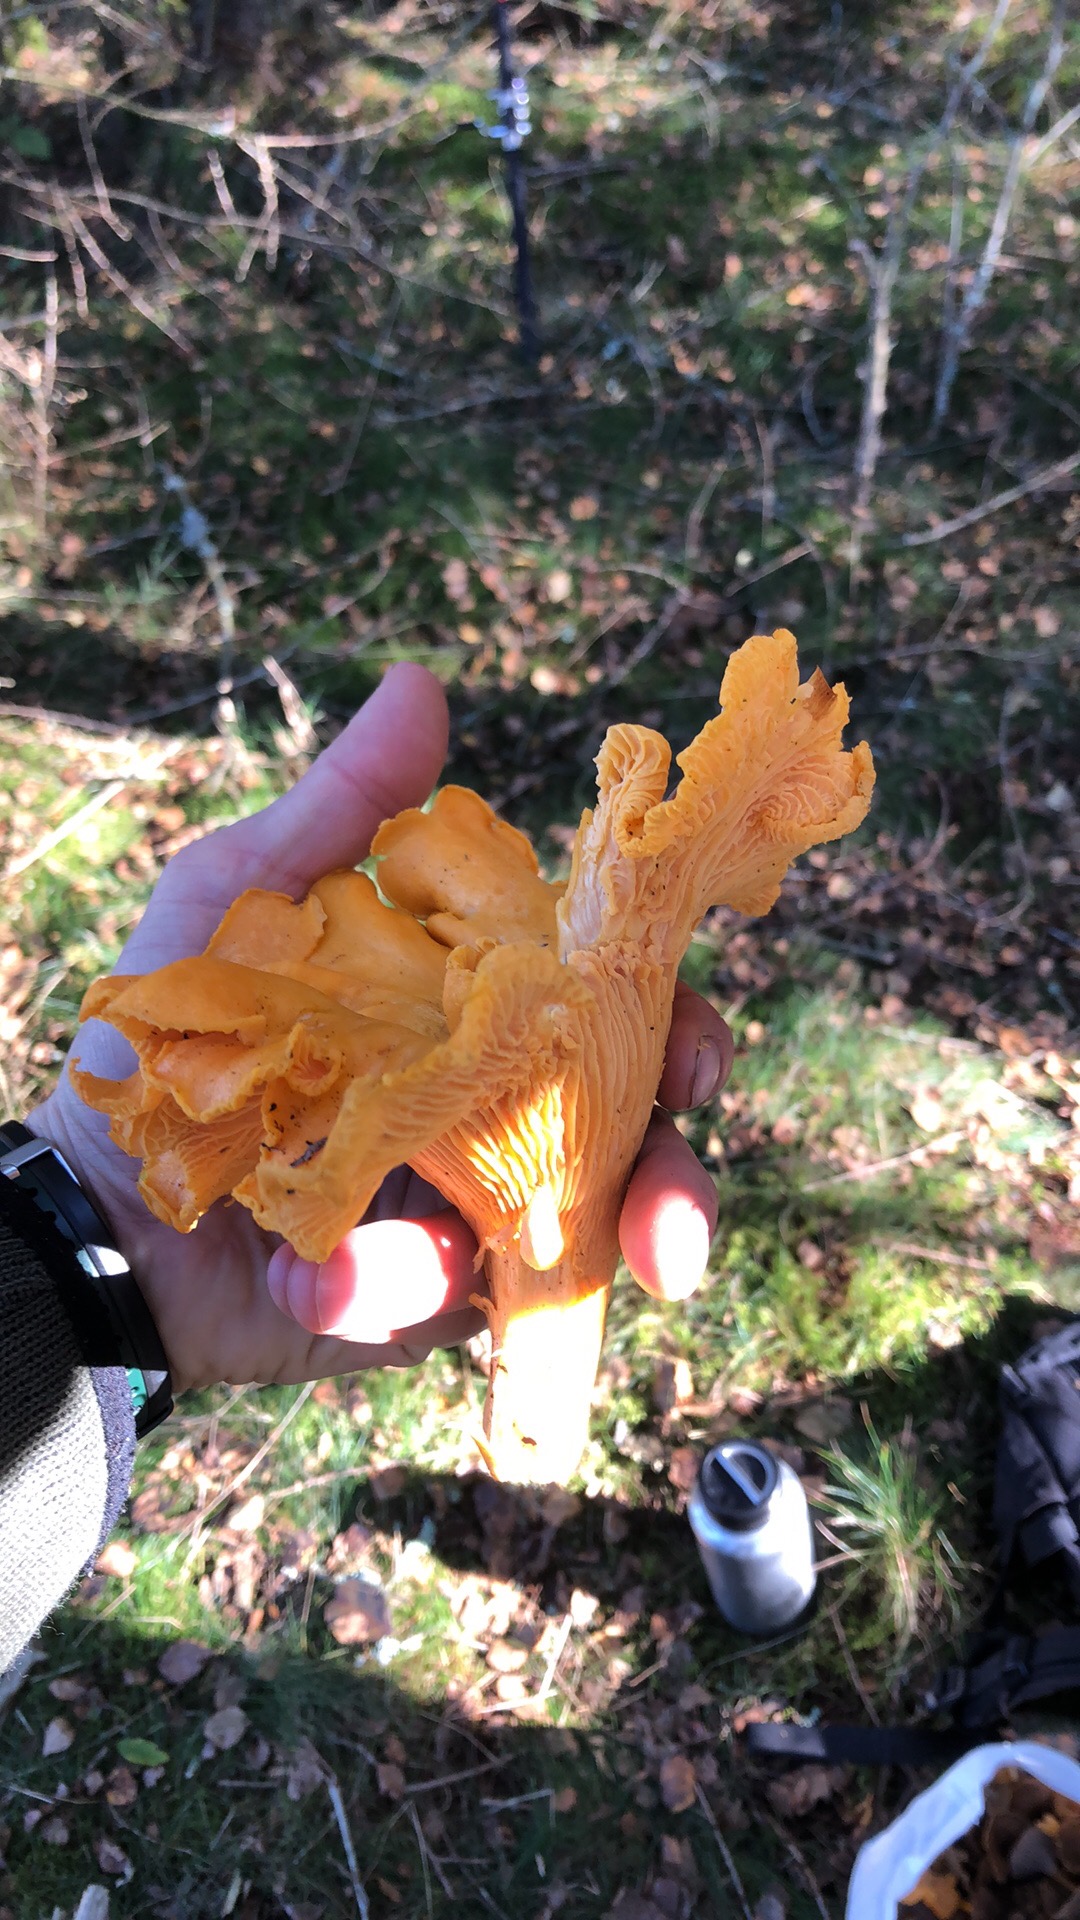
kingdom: Fungi
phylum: Basidiomycota
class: Agaricomycetes
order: Cantharellales
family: Hydnaceae
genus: Cantharellus
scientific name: Cantharellus cibarius
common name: almindelig kantarel
